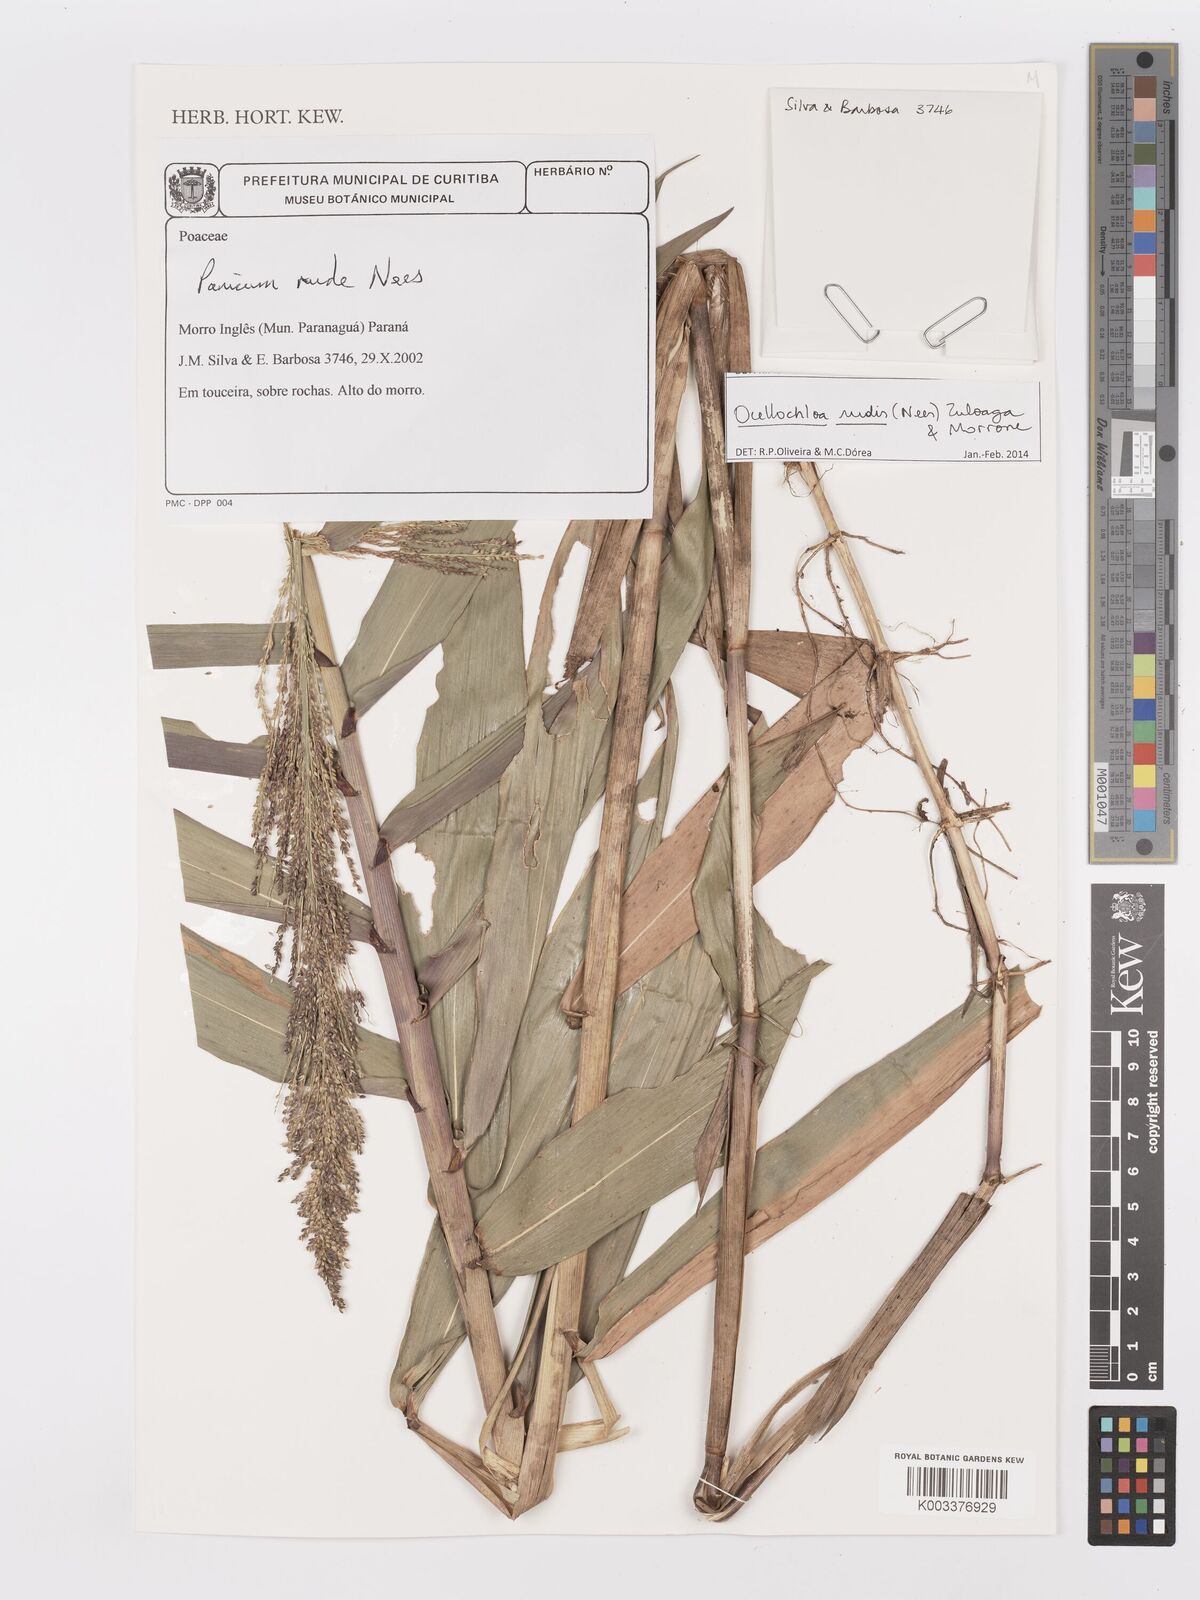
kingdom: Plantae
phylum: Tracheophyta
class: Liliopsida
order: Poales
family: Poaceae
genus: Ocellochloa
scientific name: Ocellochloa rudis
